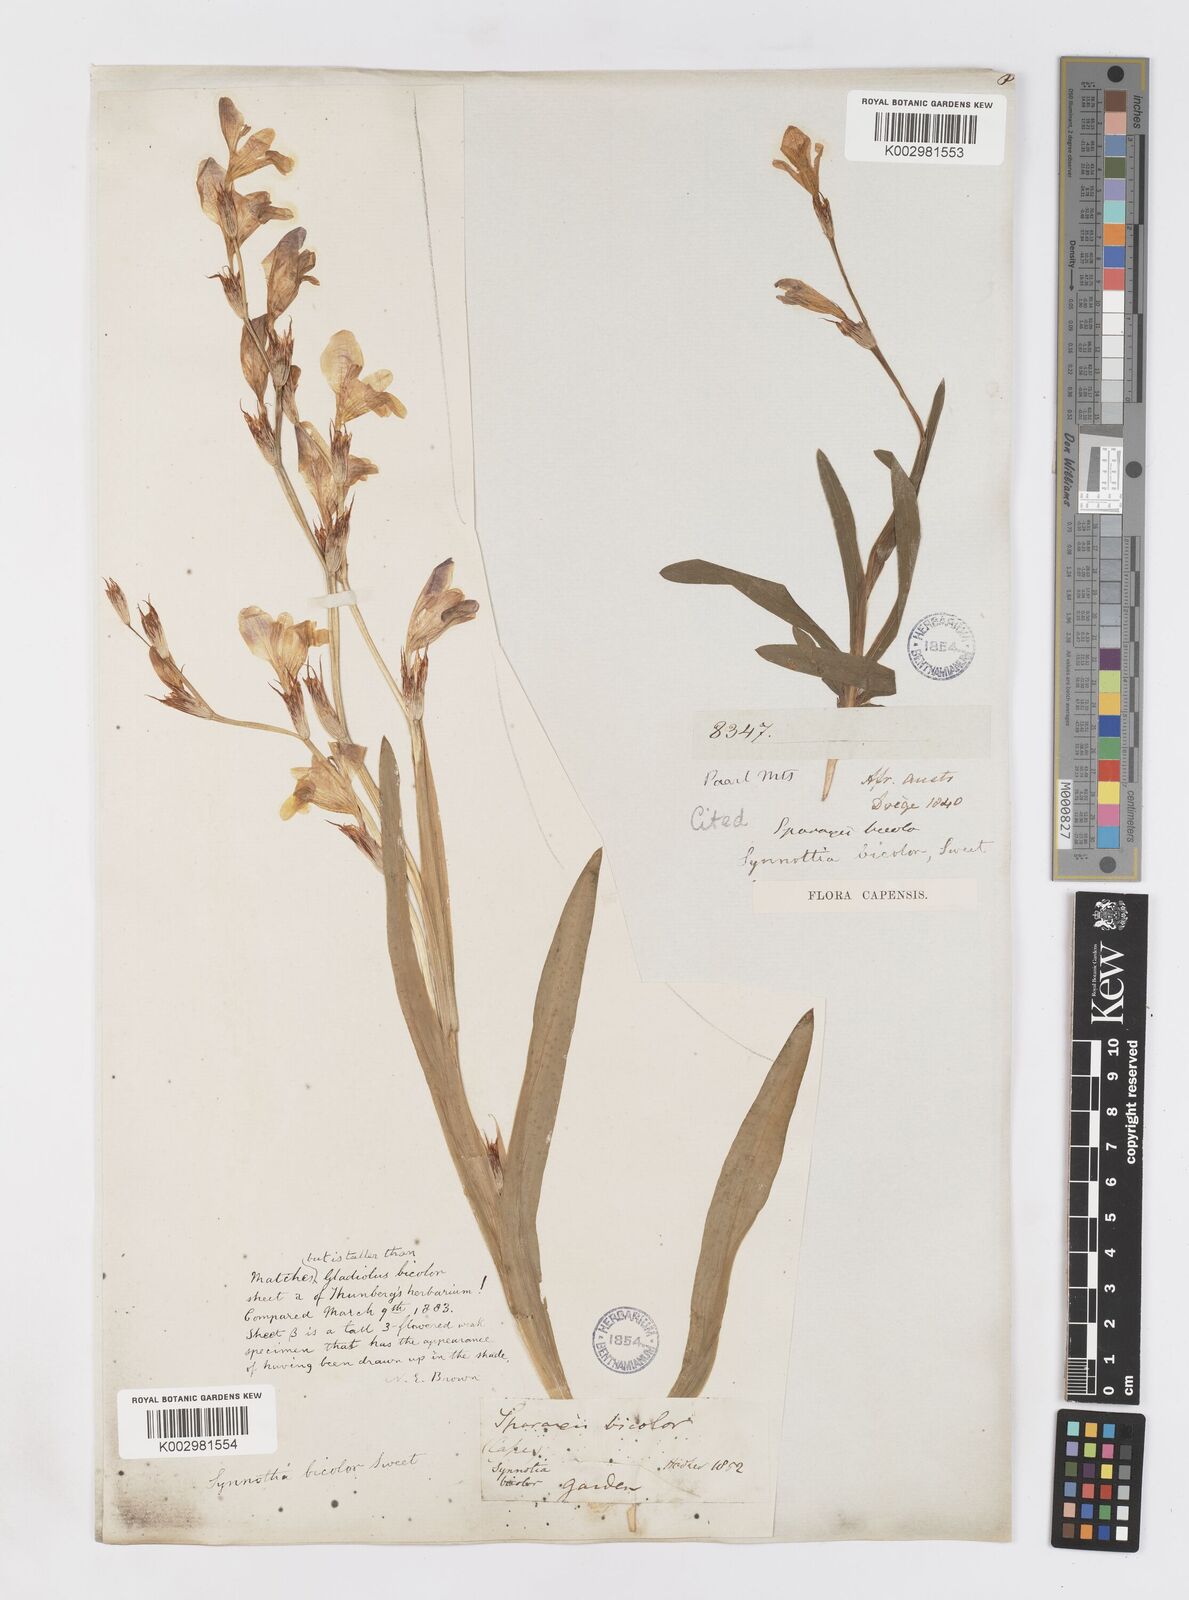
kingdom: Plantae
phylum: Tracheophyta
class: Liliopsida
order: Asparagales
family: Iridaceae
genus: Sparaxis
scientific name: Sparaxis villosa
